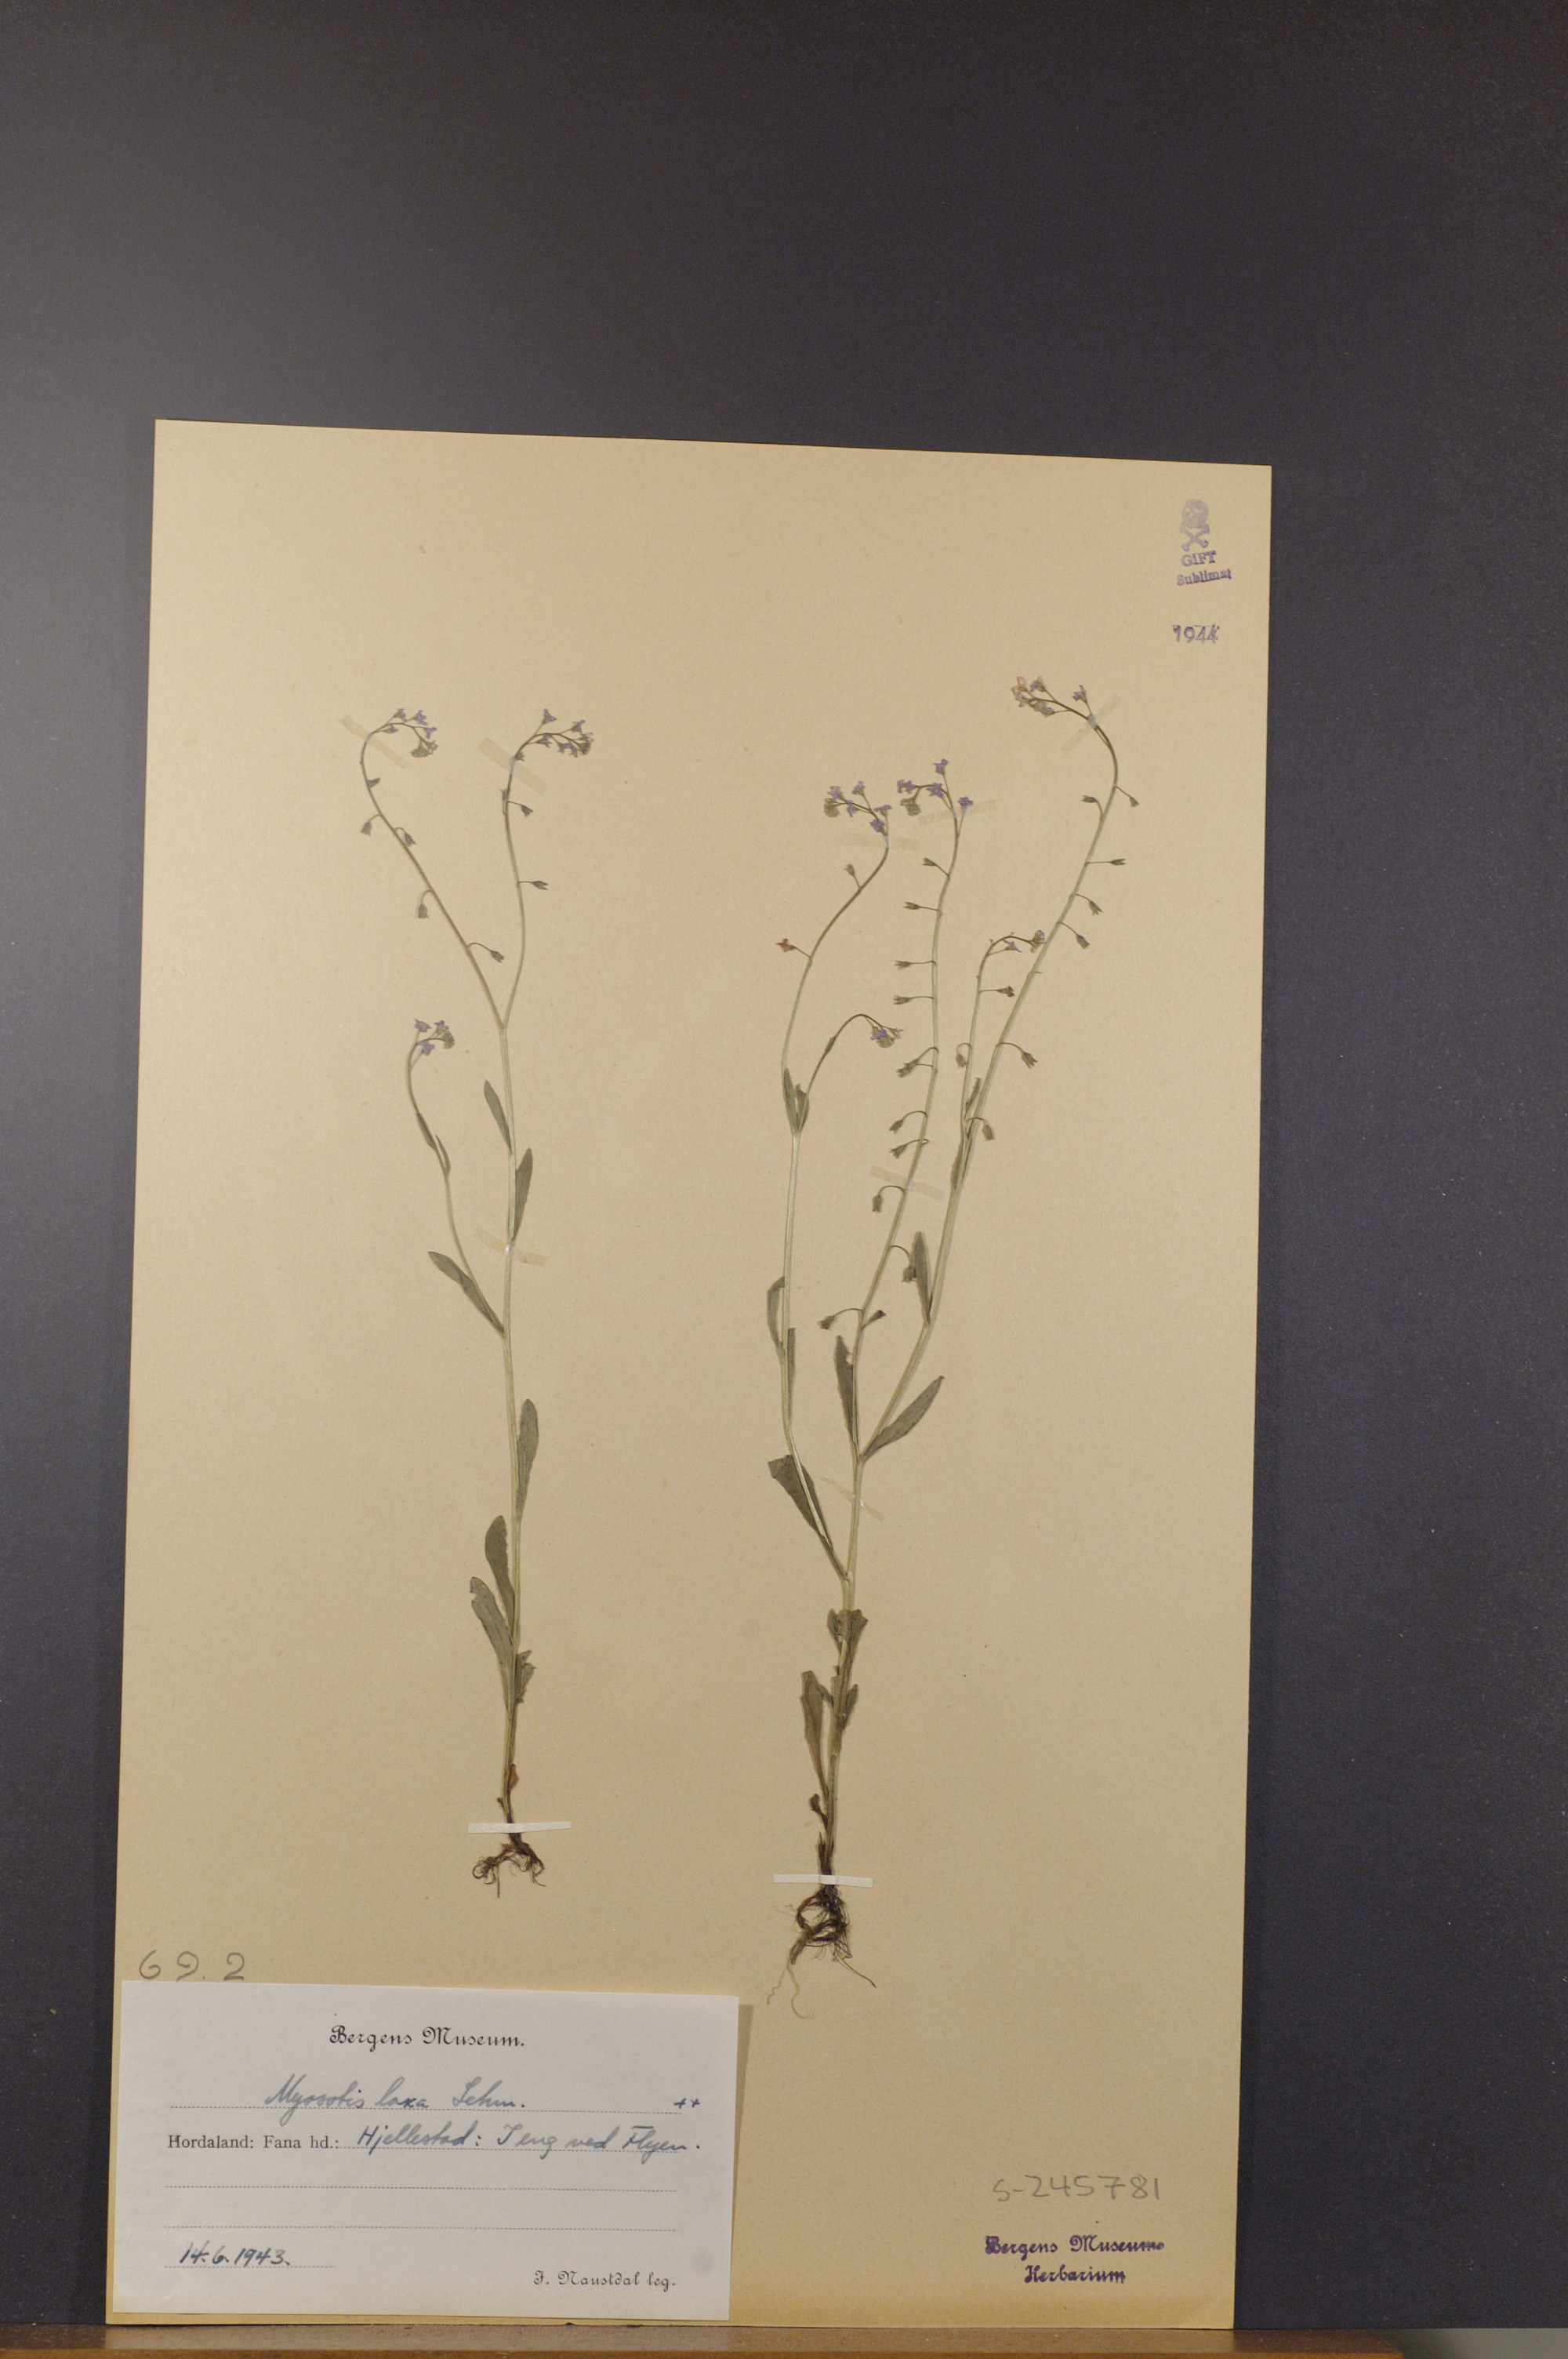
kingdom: Plantae
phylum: Tracheophyta
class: Magnoliopsida
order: Boraginales
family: Boraginaceae
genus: Myosotis
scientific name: Myosotis laxa
